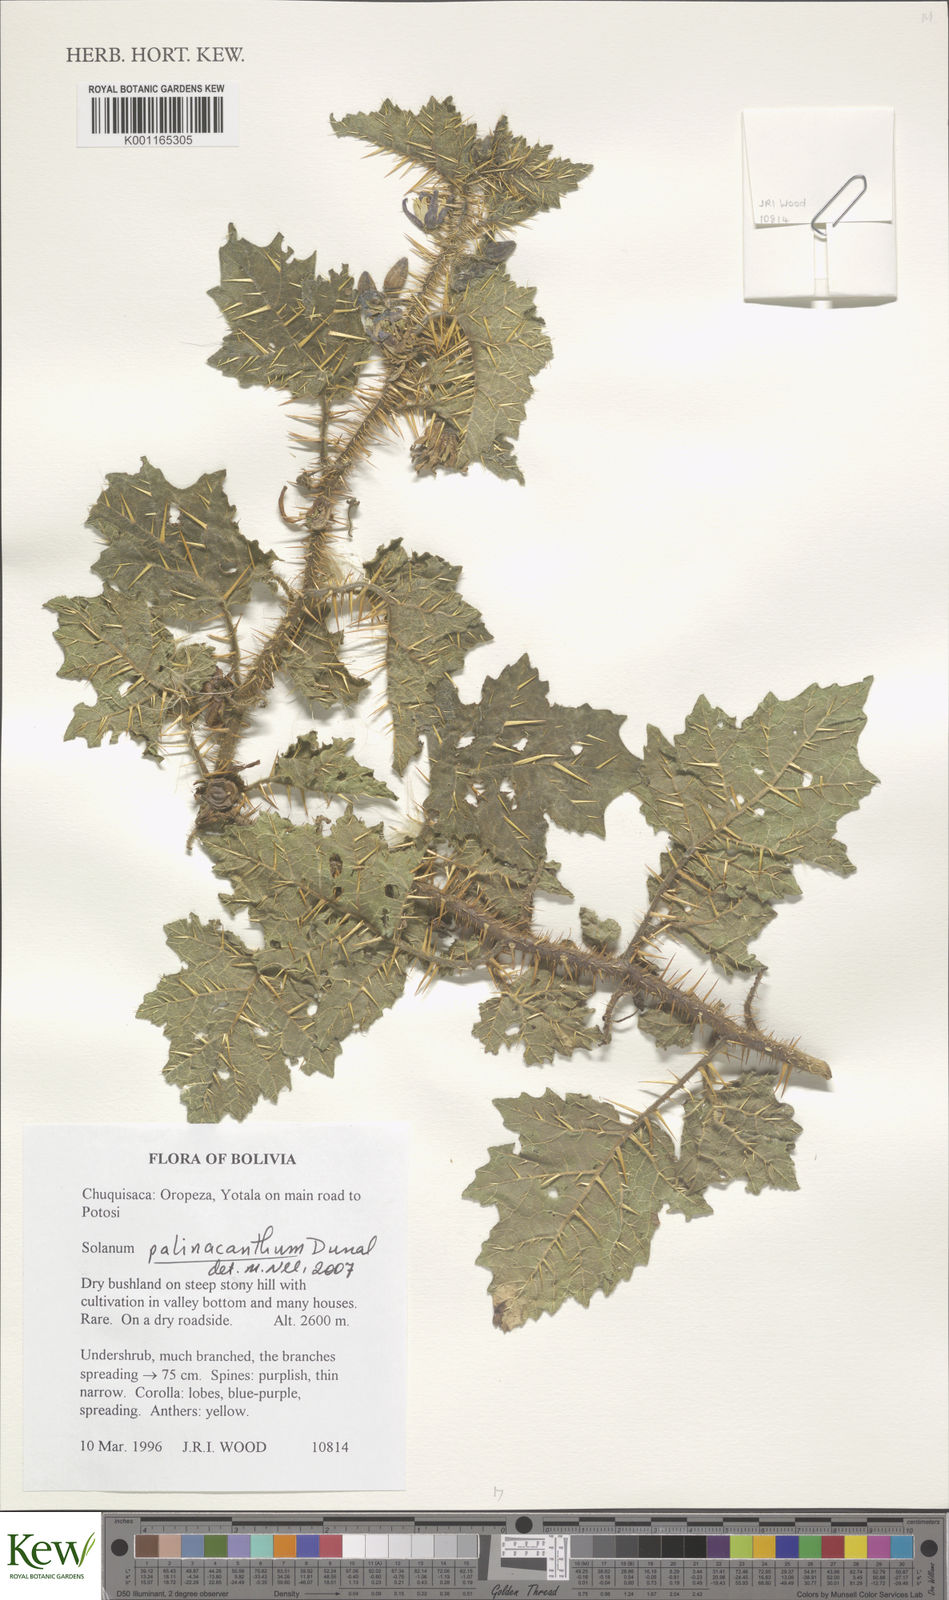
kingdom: Plantae
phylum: Tracheophyta
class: Magnoliopsida
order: Solanales
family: Solanaceae
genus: Solanum
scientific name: Solanum palinacanthum
